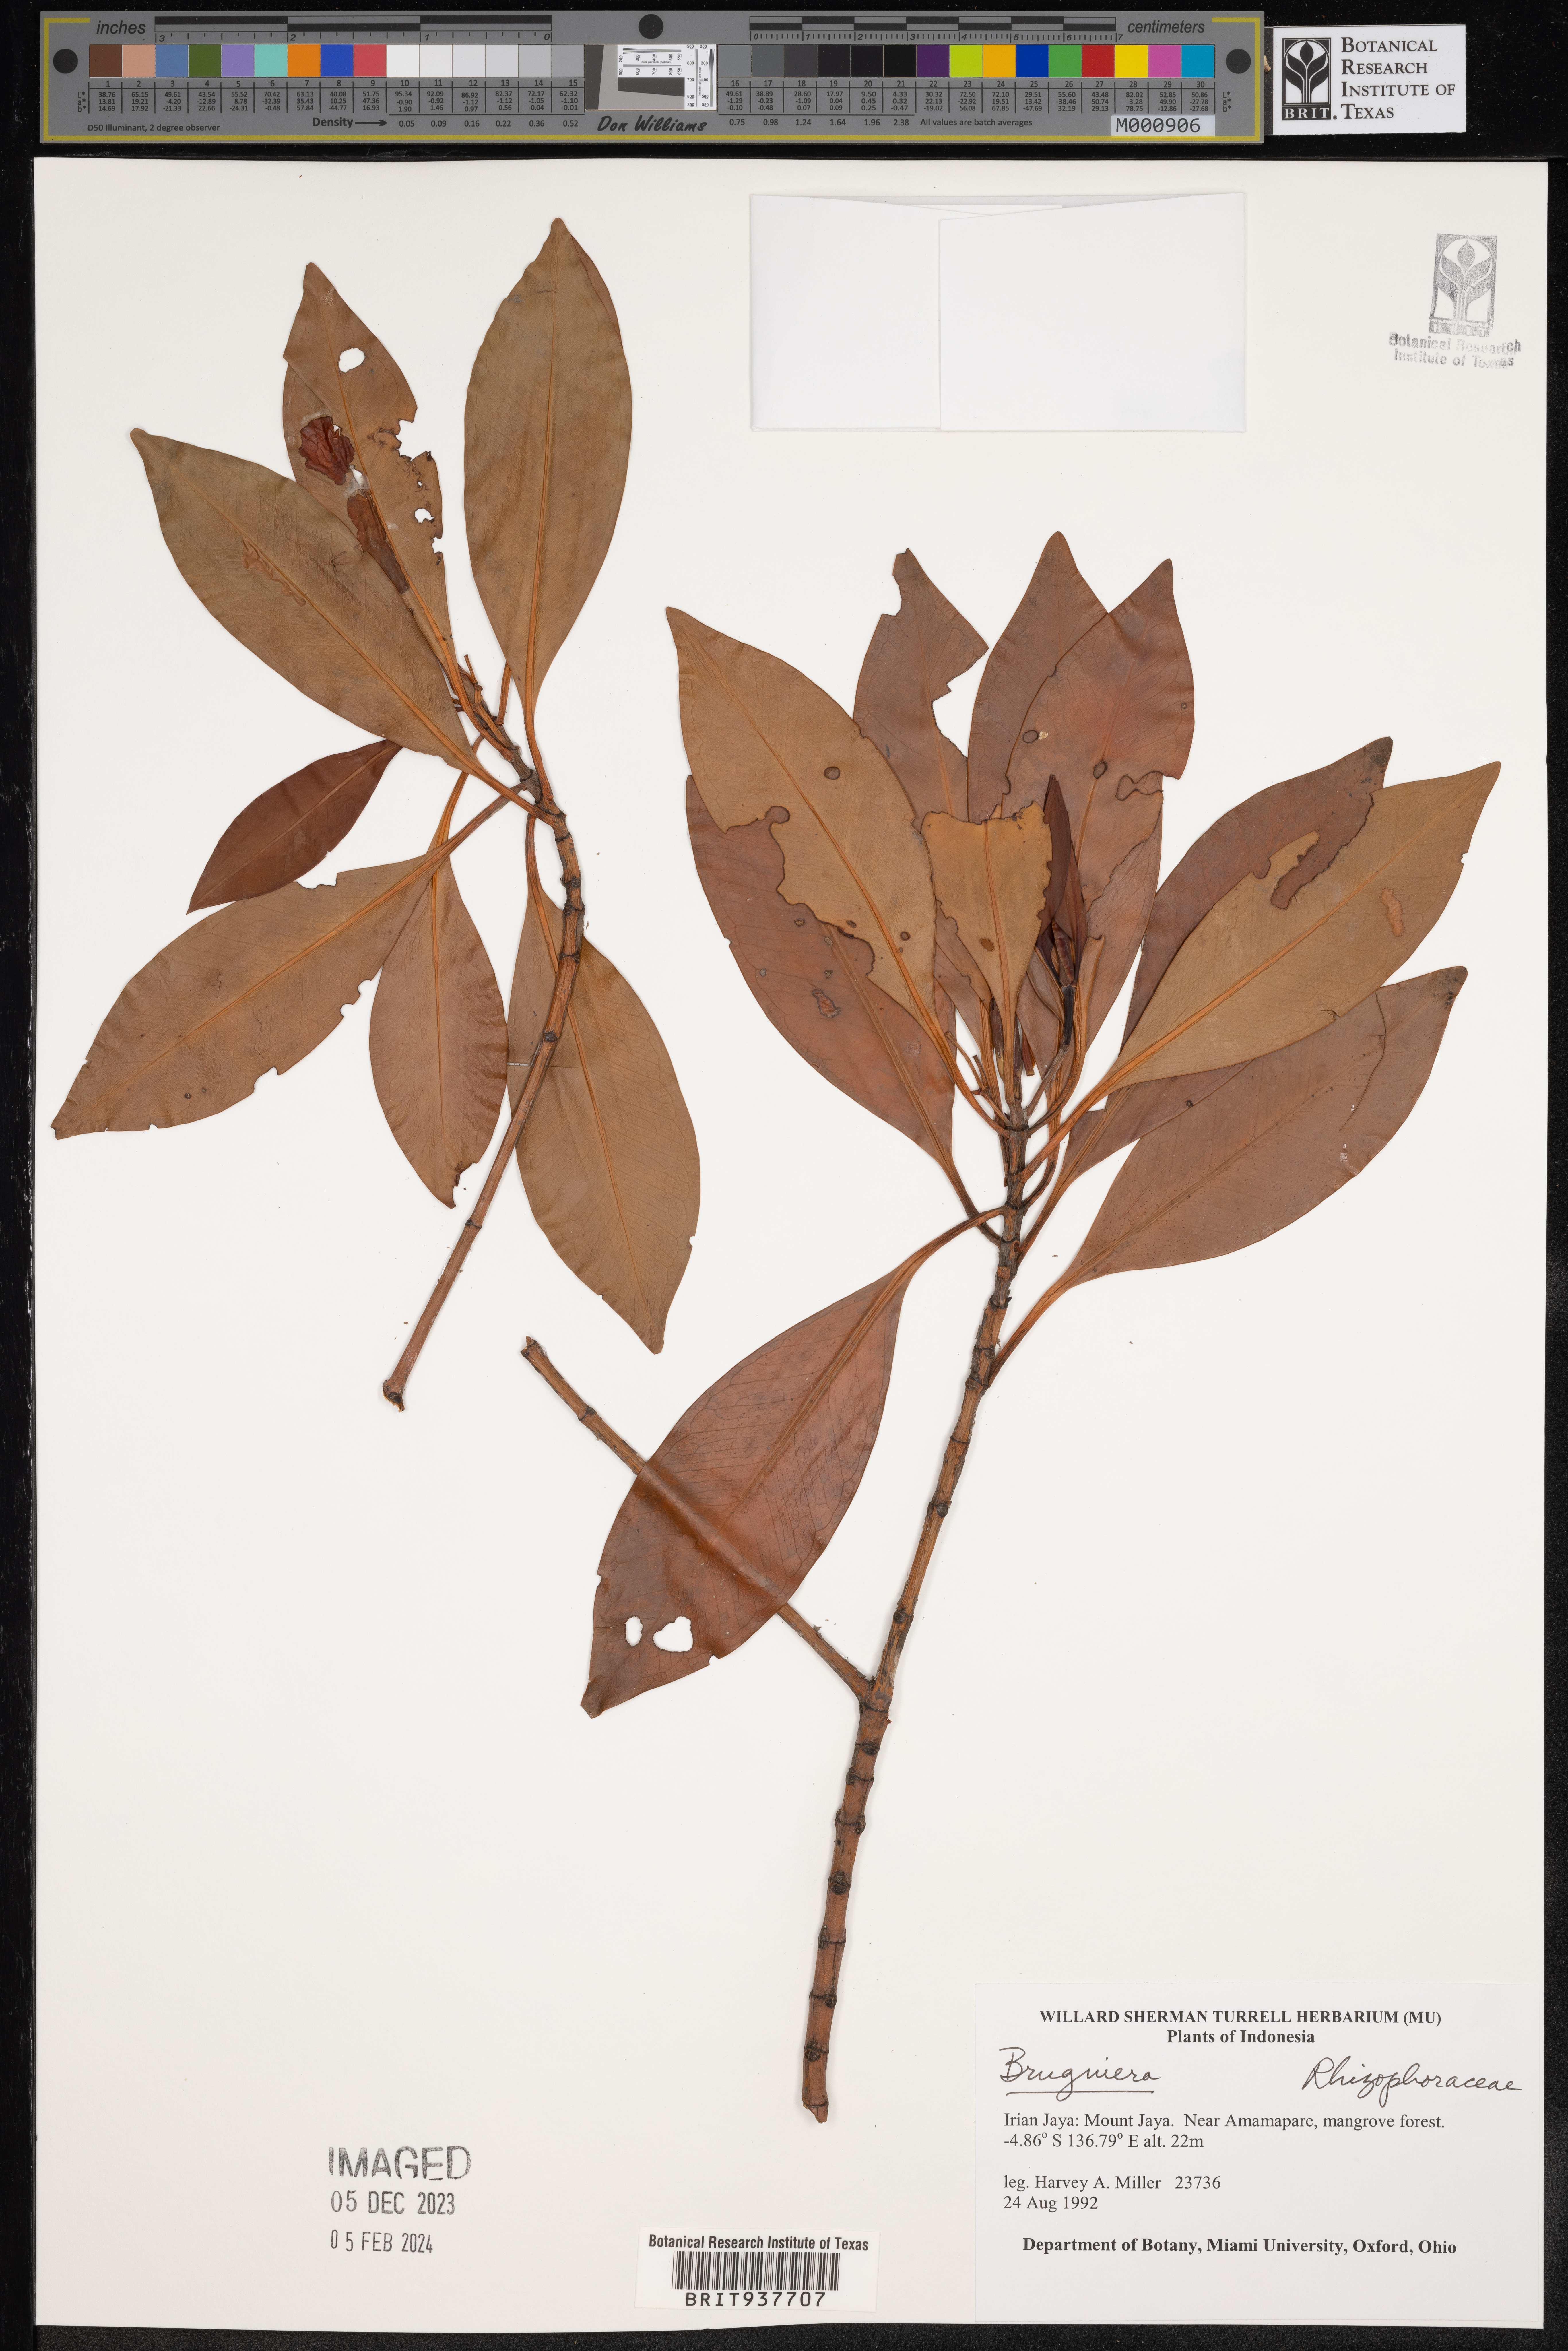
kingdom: Plantae
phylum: Tracheophyta
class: Magnoliopsida
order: Malpighiales
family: Rhizophoraceae
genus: Bruguiera
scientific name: Bruguiera
